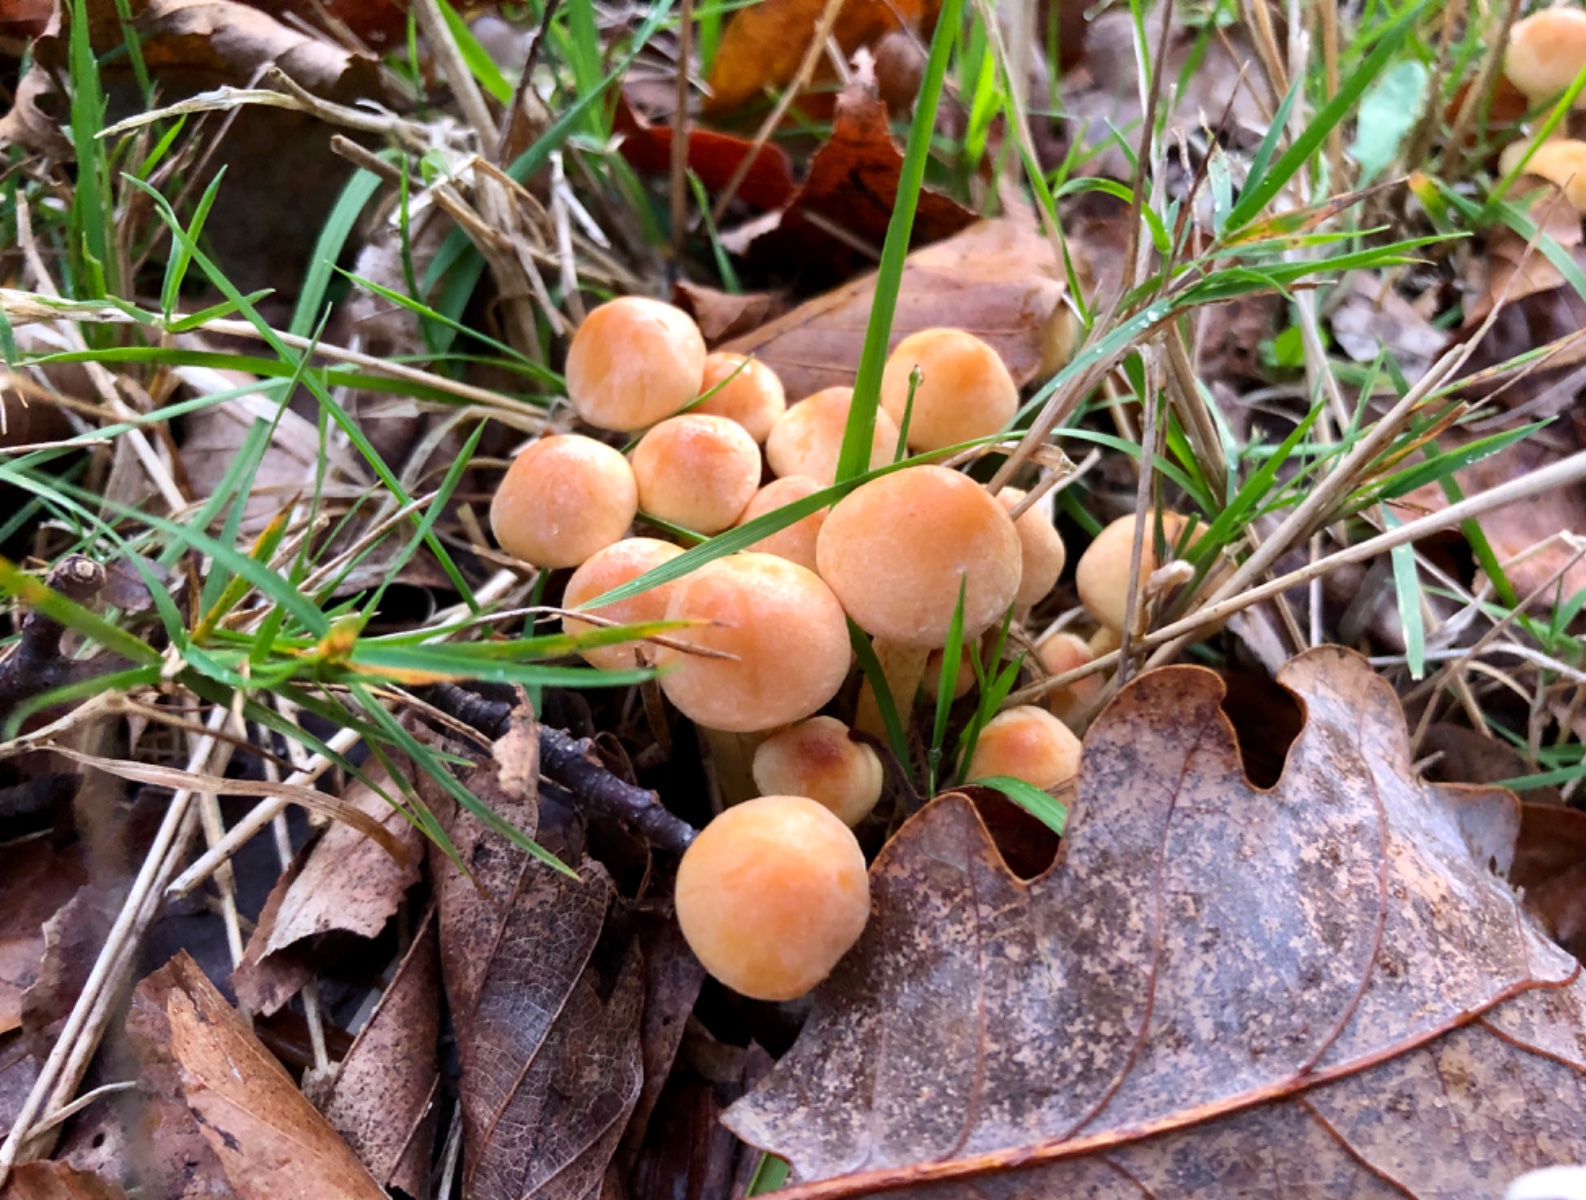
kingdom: Fungi
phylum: Basidiomycota
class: Agaricomycetes
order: Agaricales
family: Strophariaceae
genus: Hypholoma
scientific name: Hypholoma fasciculare
